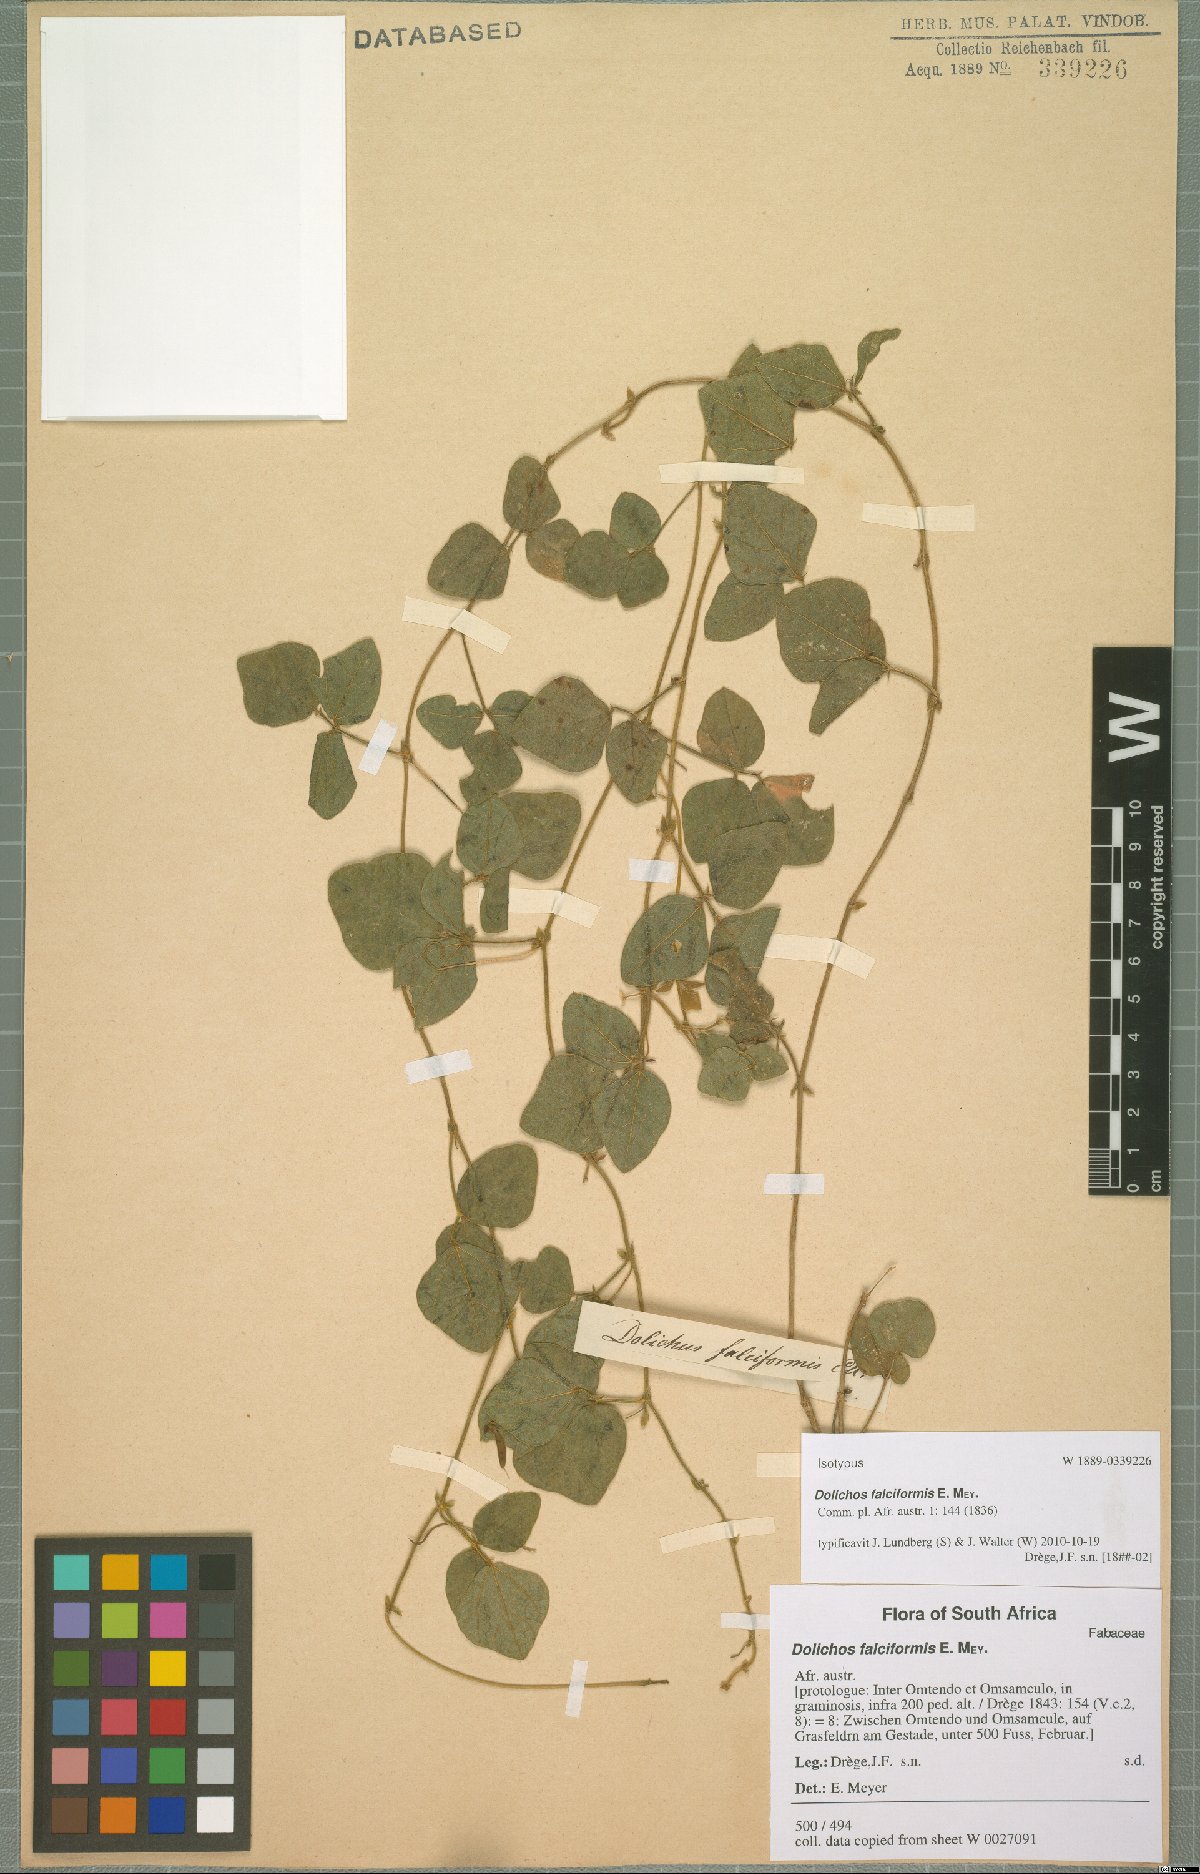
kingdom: Plantae
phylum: Tracheophyta
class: Magnoliopsida
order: Fabales
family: Fabaceae
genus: Dolichos
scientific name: Dolichos falciformis
